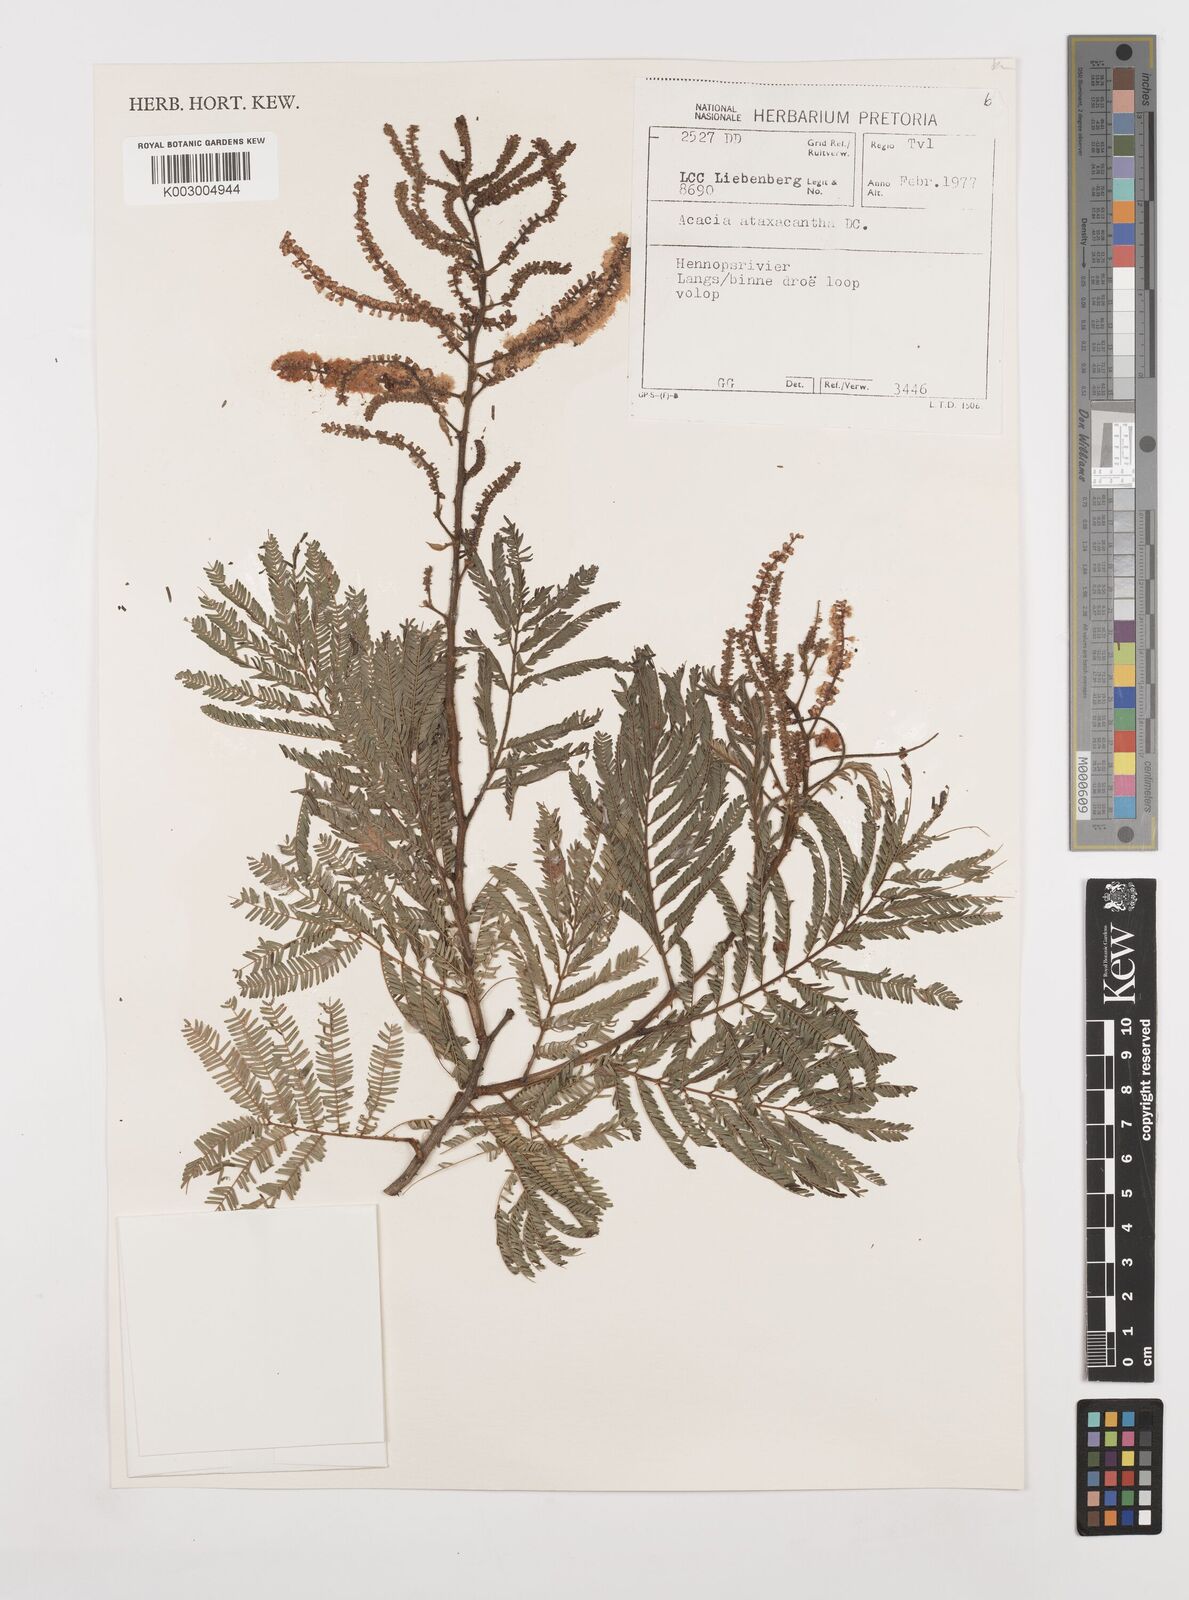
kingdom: Plantae
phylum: Tracheophyta
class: Magnoliopsida
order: Fabales
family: Fabaceae
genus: Senegalia
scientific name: Senegalia ataxacantha
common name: Flame acacia
